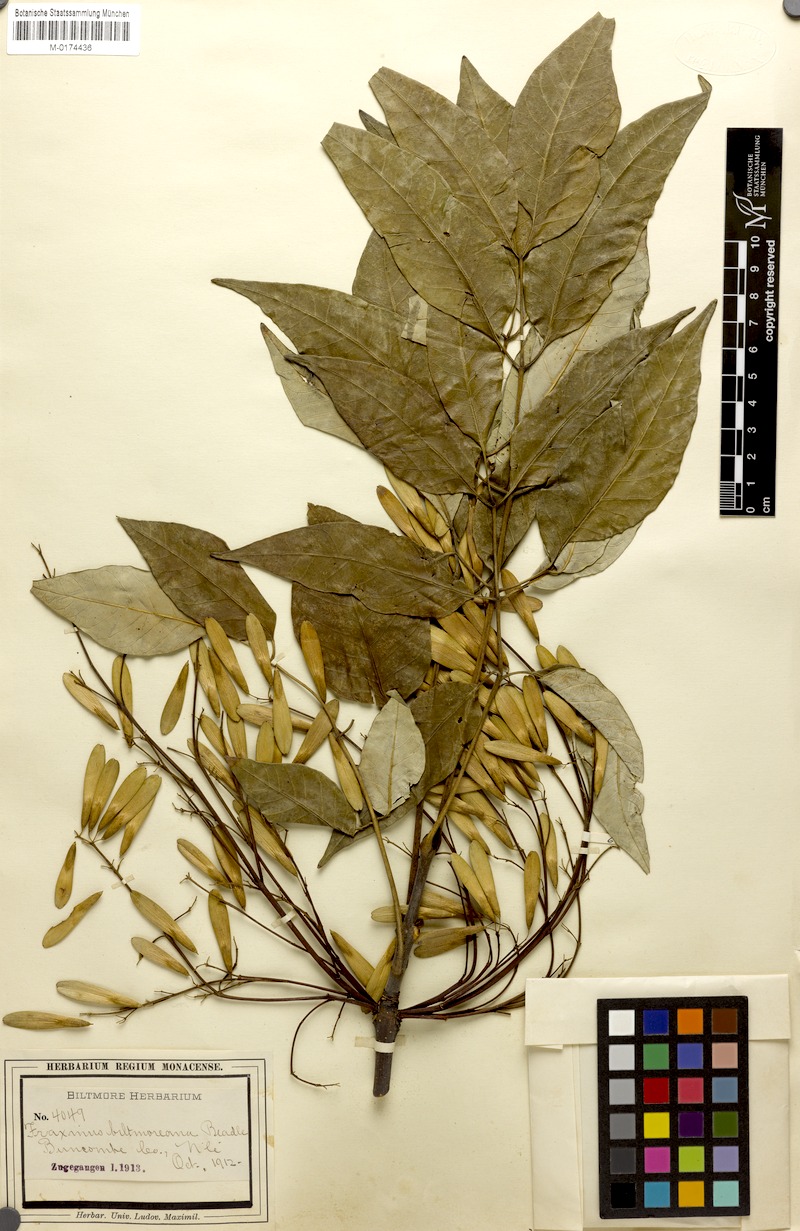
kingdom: Plantae
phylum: Tracheophyta
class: Magnoliopsida
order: Lamiales
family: Oleaceae
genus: Fraxinus
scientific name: Fraxinus americana
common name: White ash
